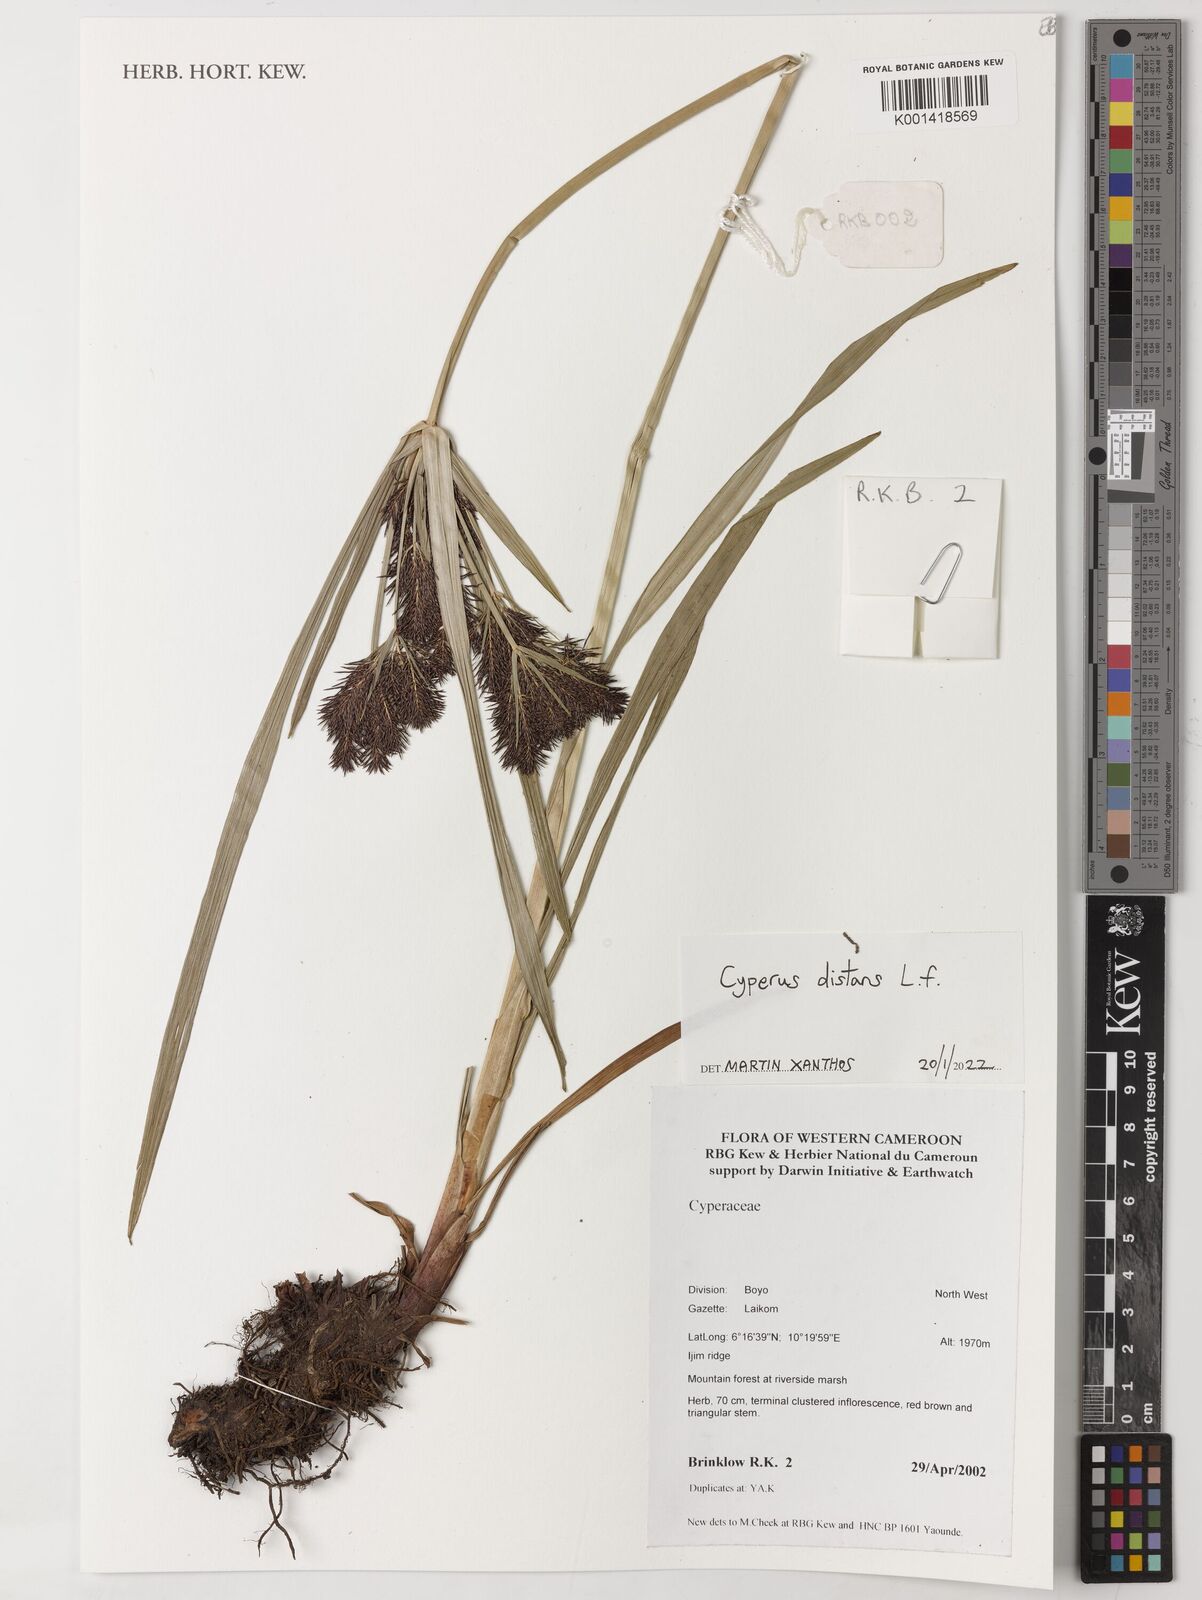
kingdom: Plantae
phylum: Tracheophyta
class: Liliopsida
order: Poales
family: Cyperaceae
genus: Cyperus
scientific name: Cyperus distans
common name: Slender cyperus
